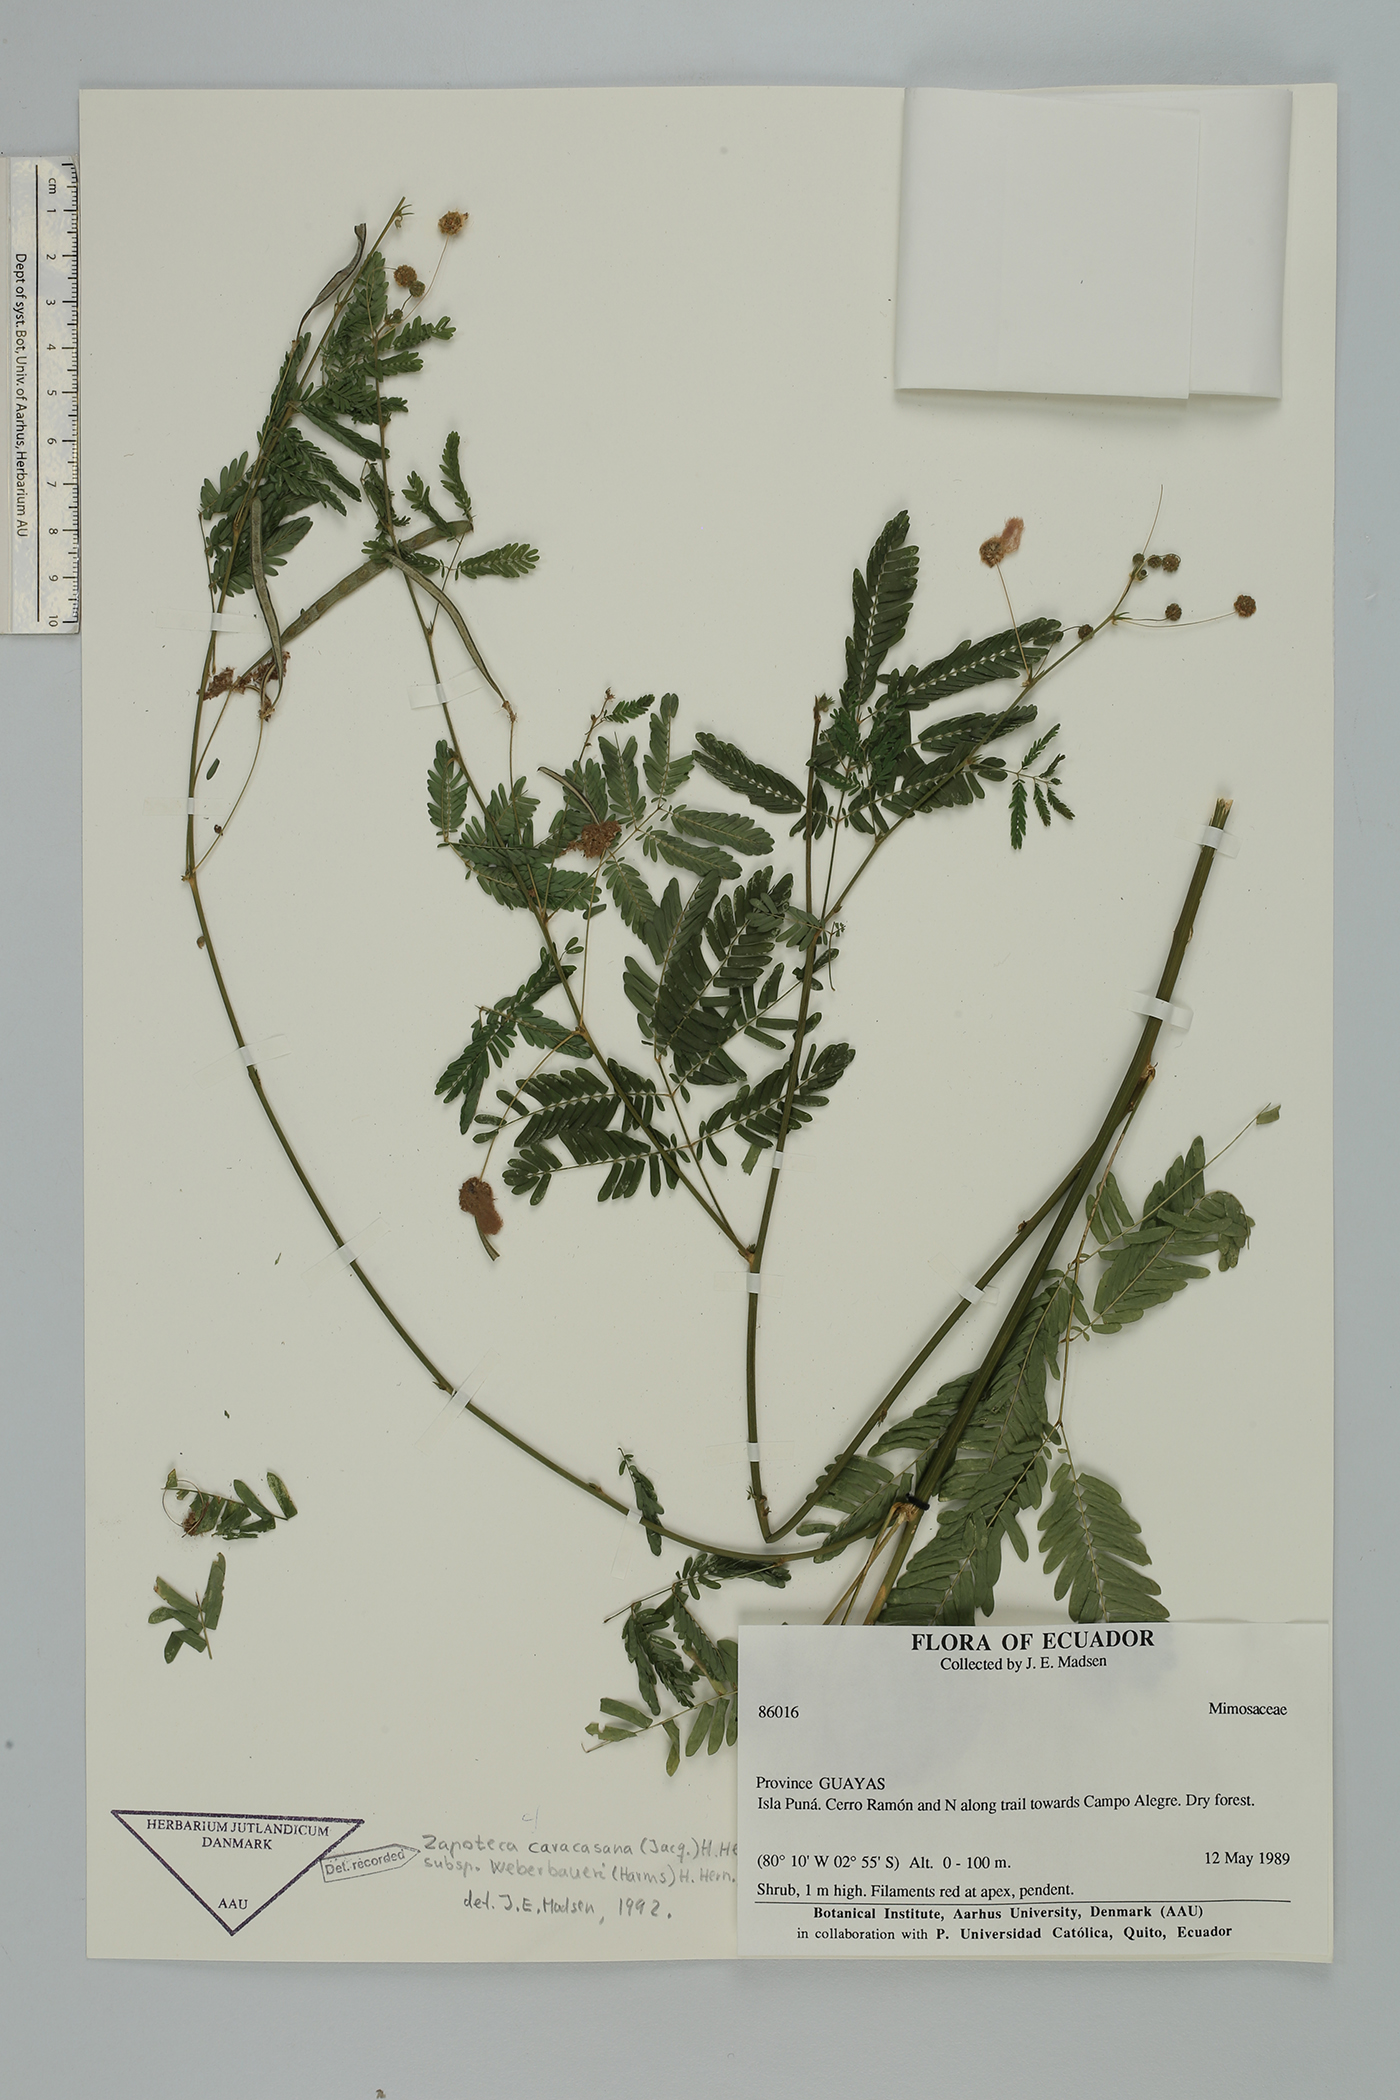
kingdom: Plantae
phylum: Tracheophyta
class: Magnoliopsida
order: Fabales
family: Fabaceae
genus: Zapoteca
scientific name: Zapoteca caracasana
